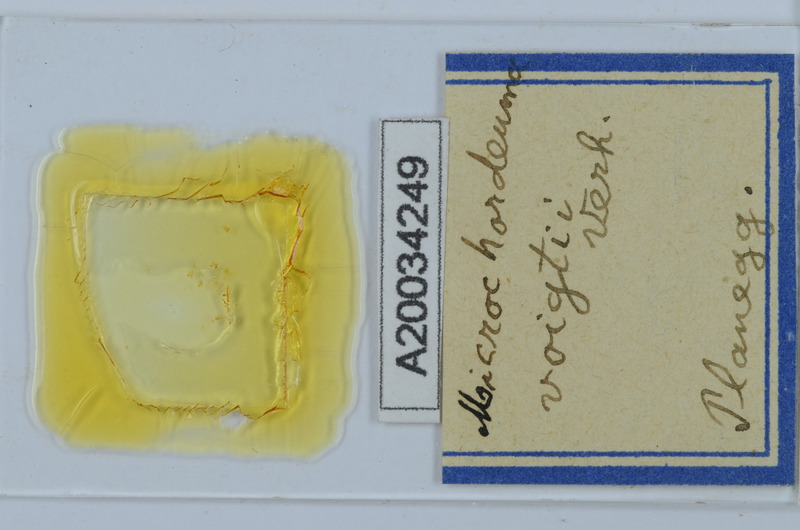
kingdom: Animalia
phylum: Arthropoda
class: Diplopoda
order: Chordeumatida
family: Chordeumatidae
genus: Melogona
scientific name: Melogona voigtii
